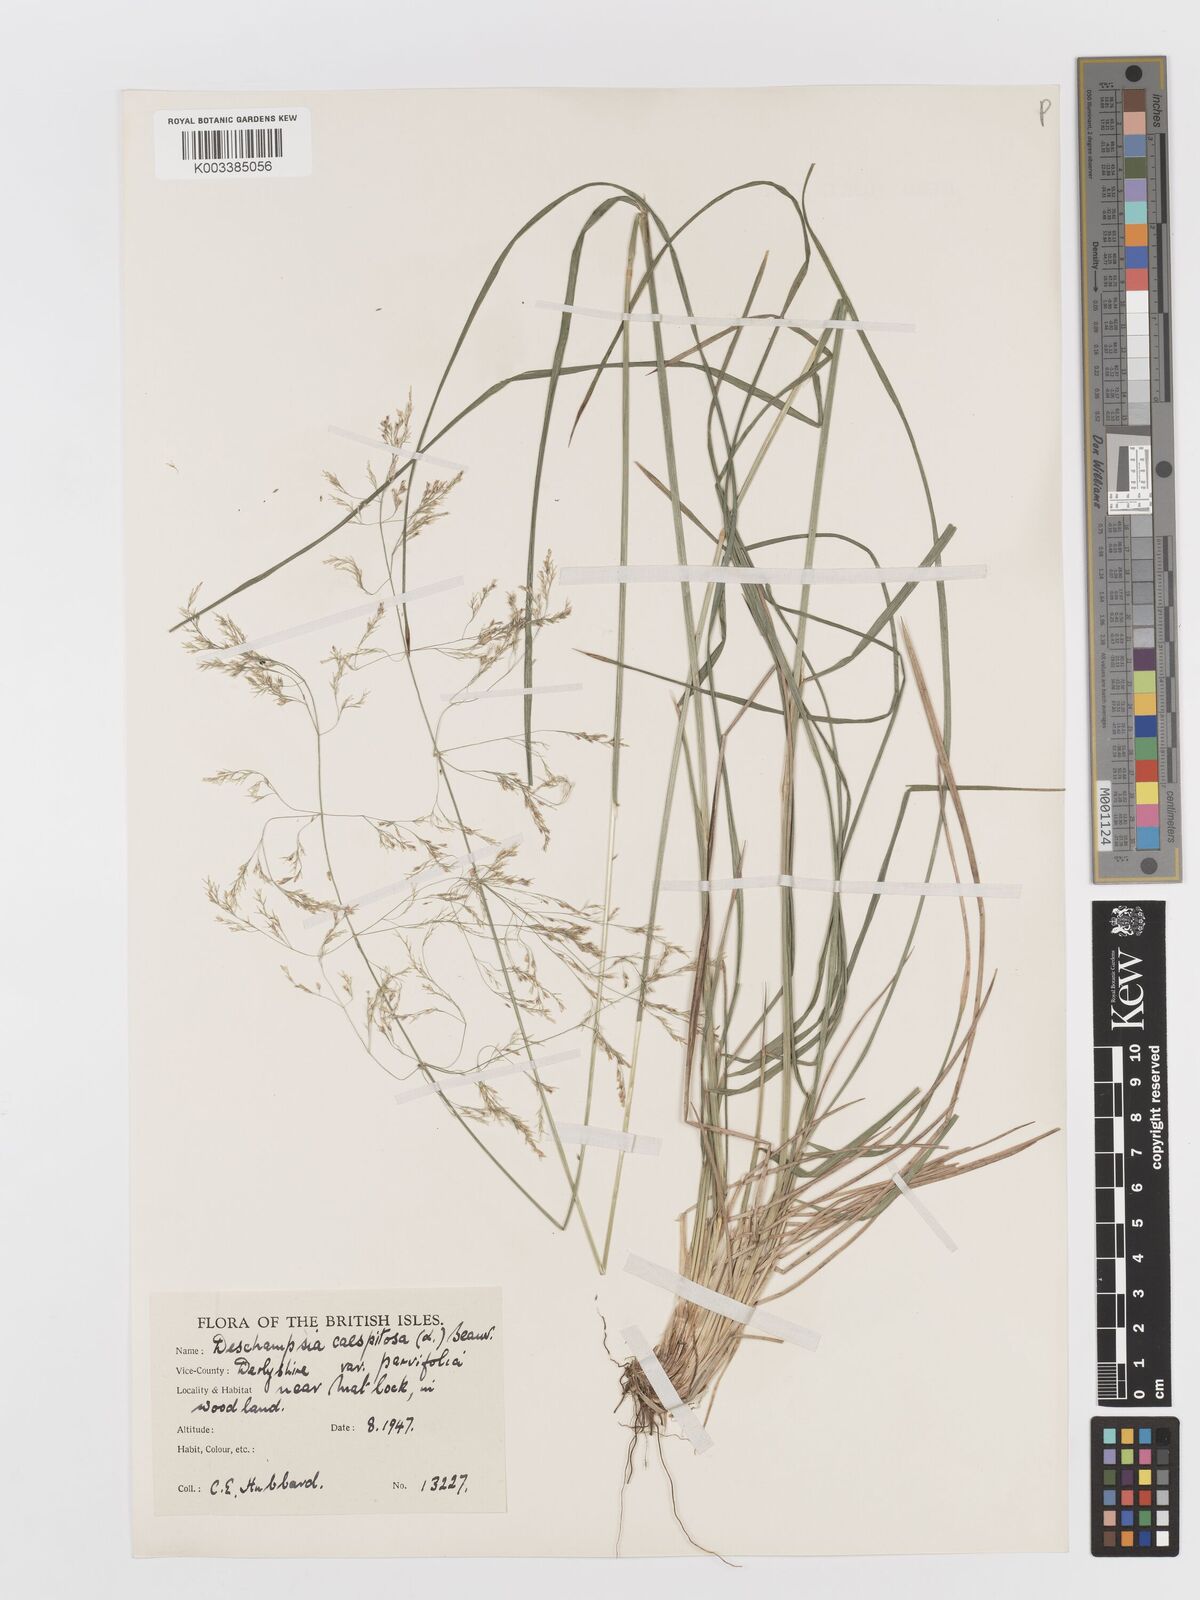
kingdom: Plantae
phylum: Tracheophyta
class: Liliopsida
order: Poales
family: Poaceae
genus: Deschampsia
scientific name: Deschampsia cespitosa
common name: Tufted hair-grass
